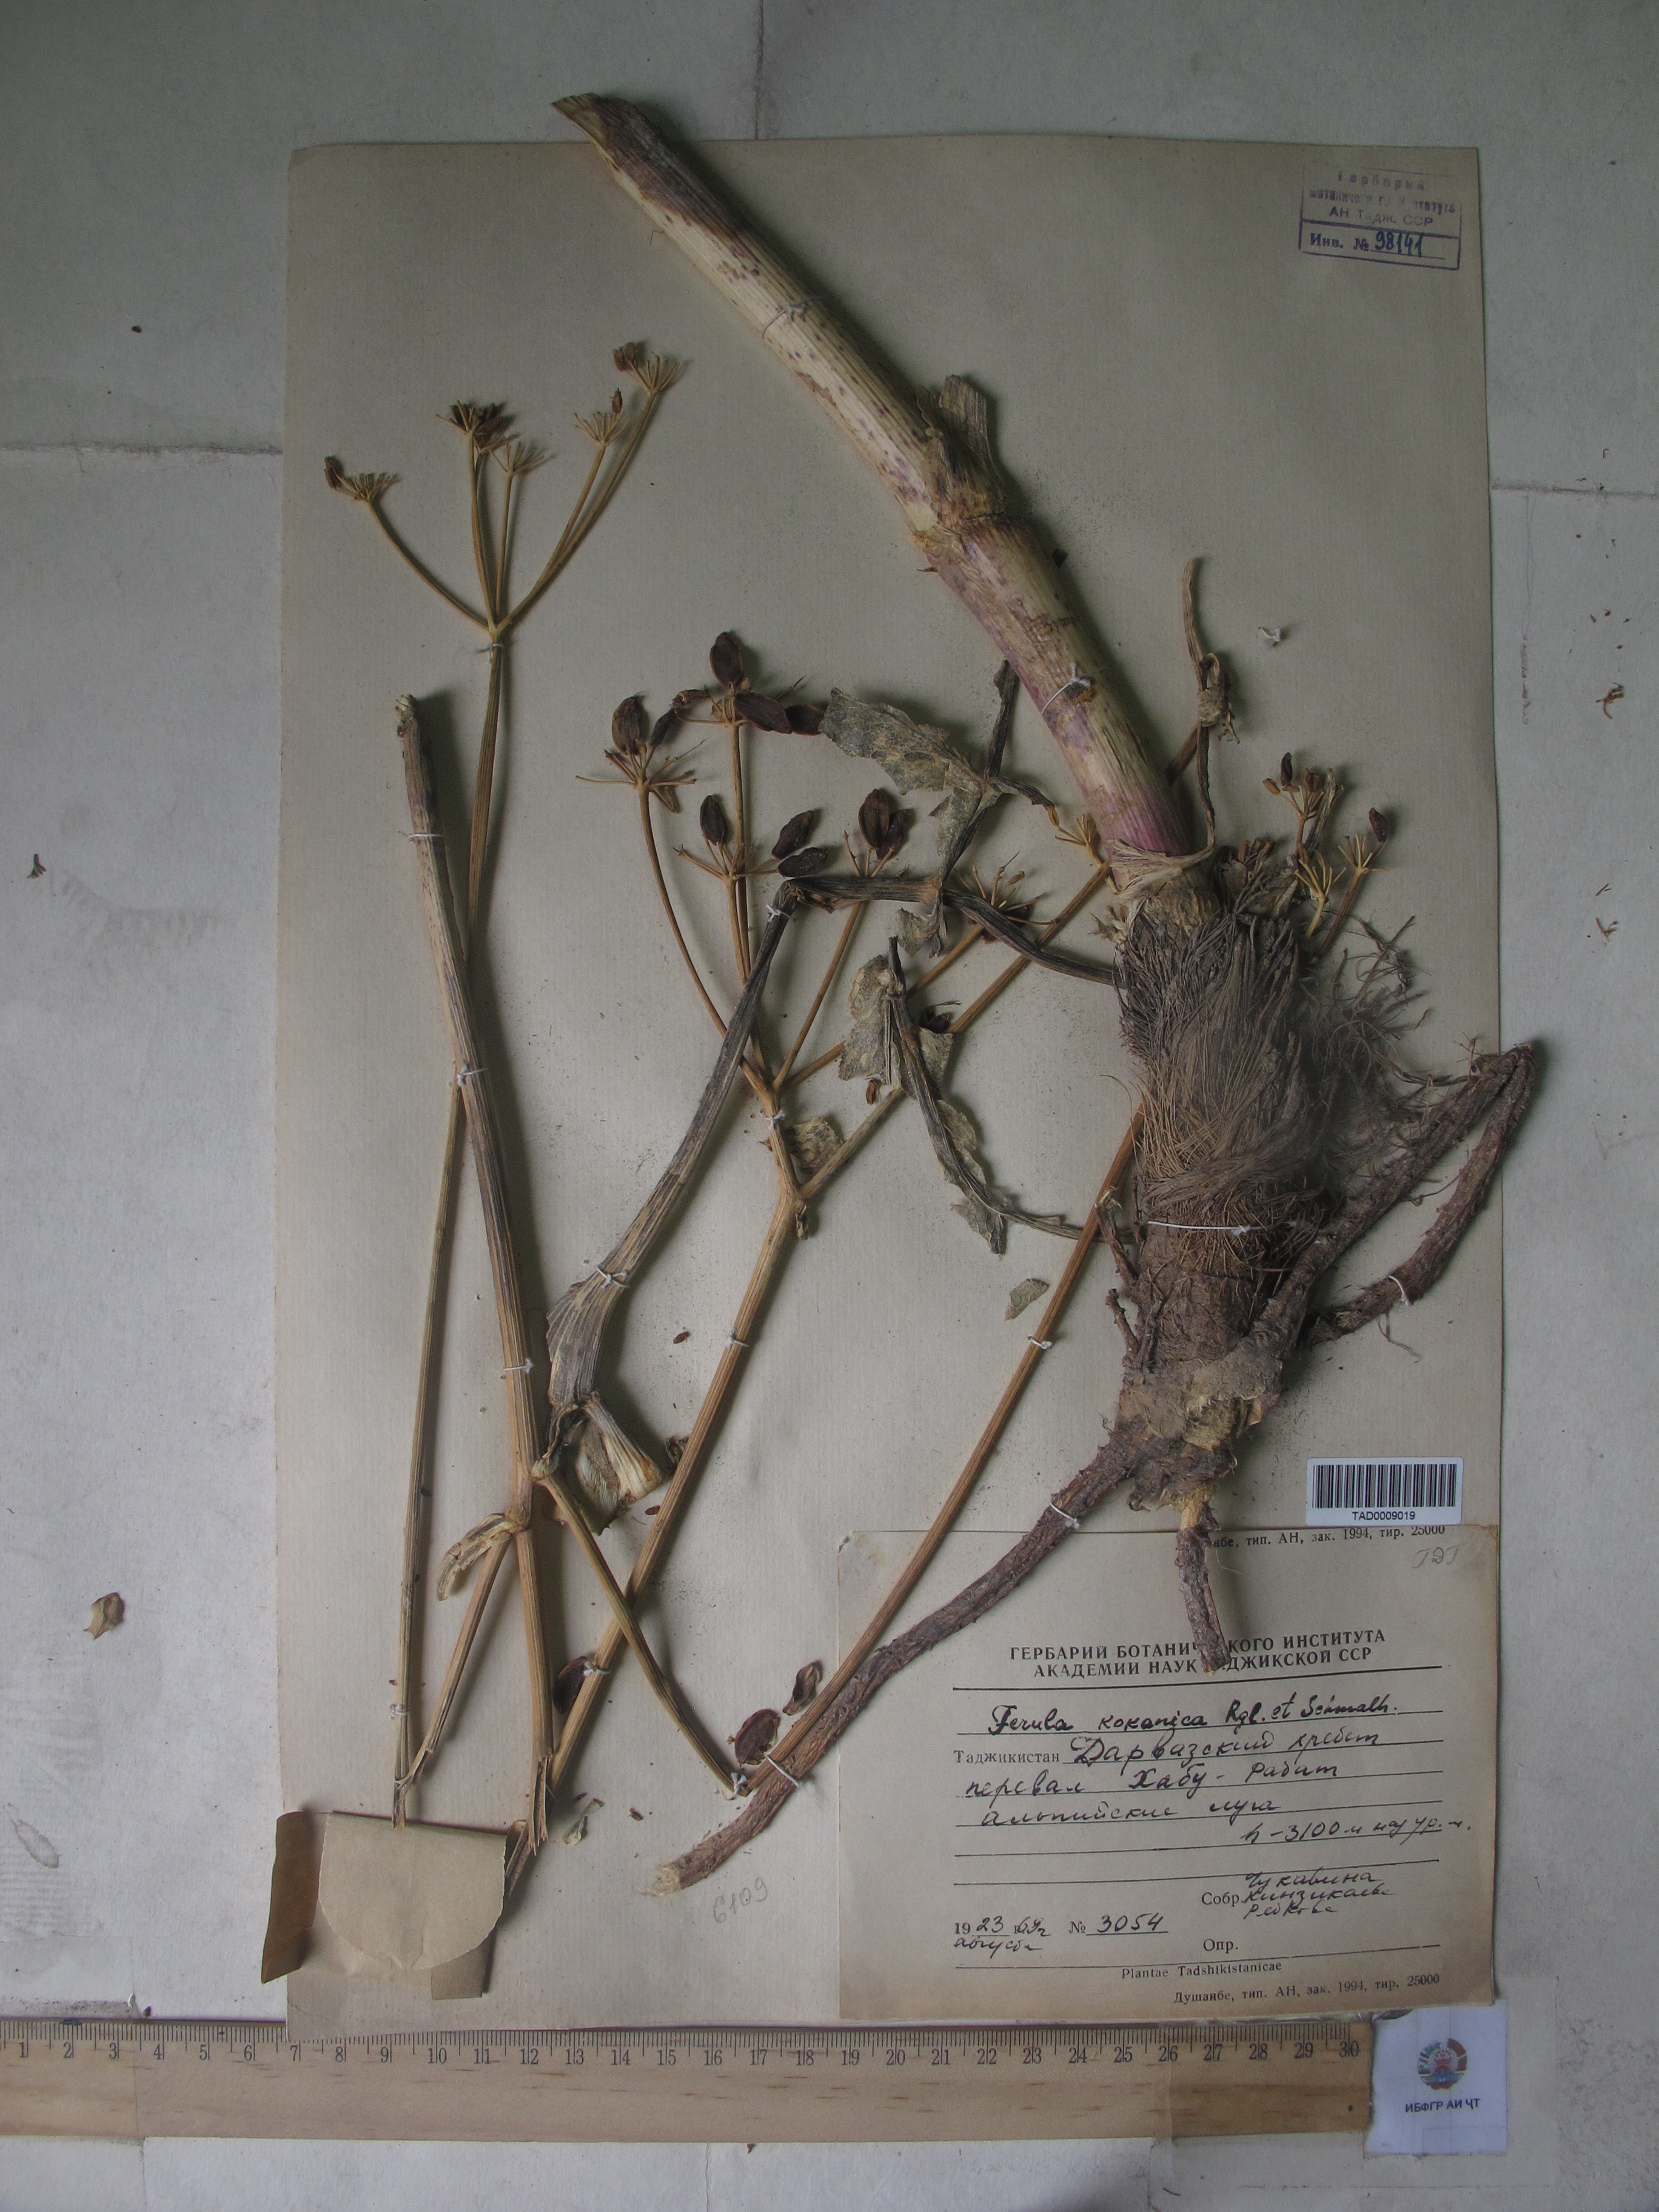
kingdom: Plantae
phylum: Tracheophyta
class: Magnoliopsida
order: Apiales
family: Apiaceae
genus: Ferula
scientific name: Ferula kokanica
